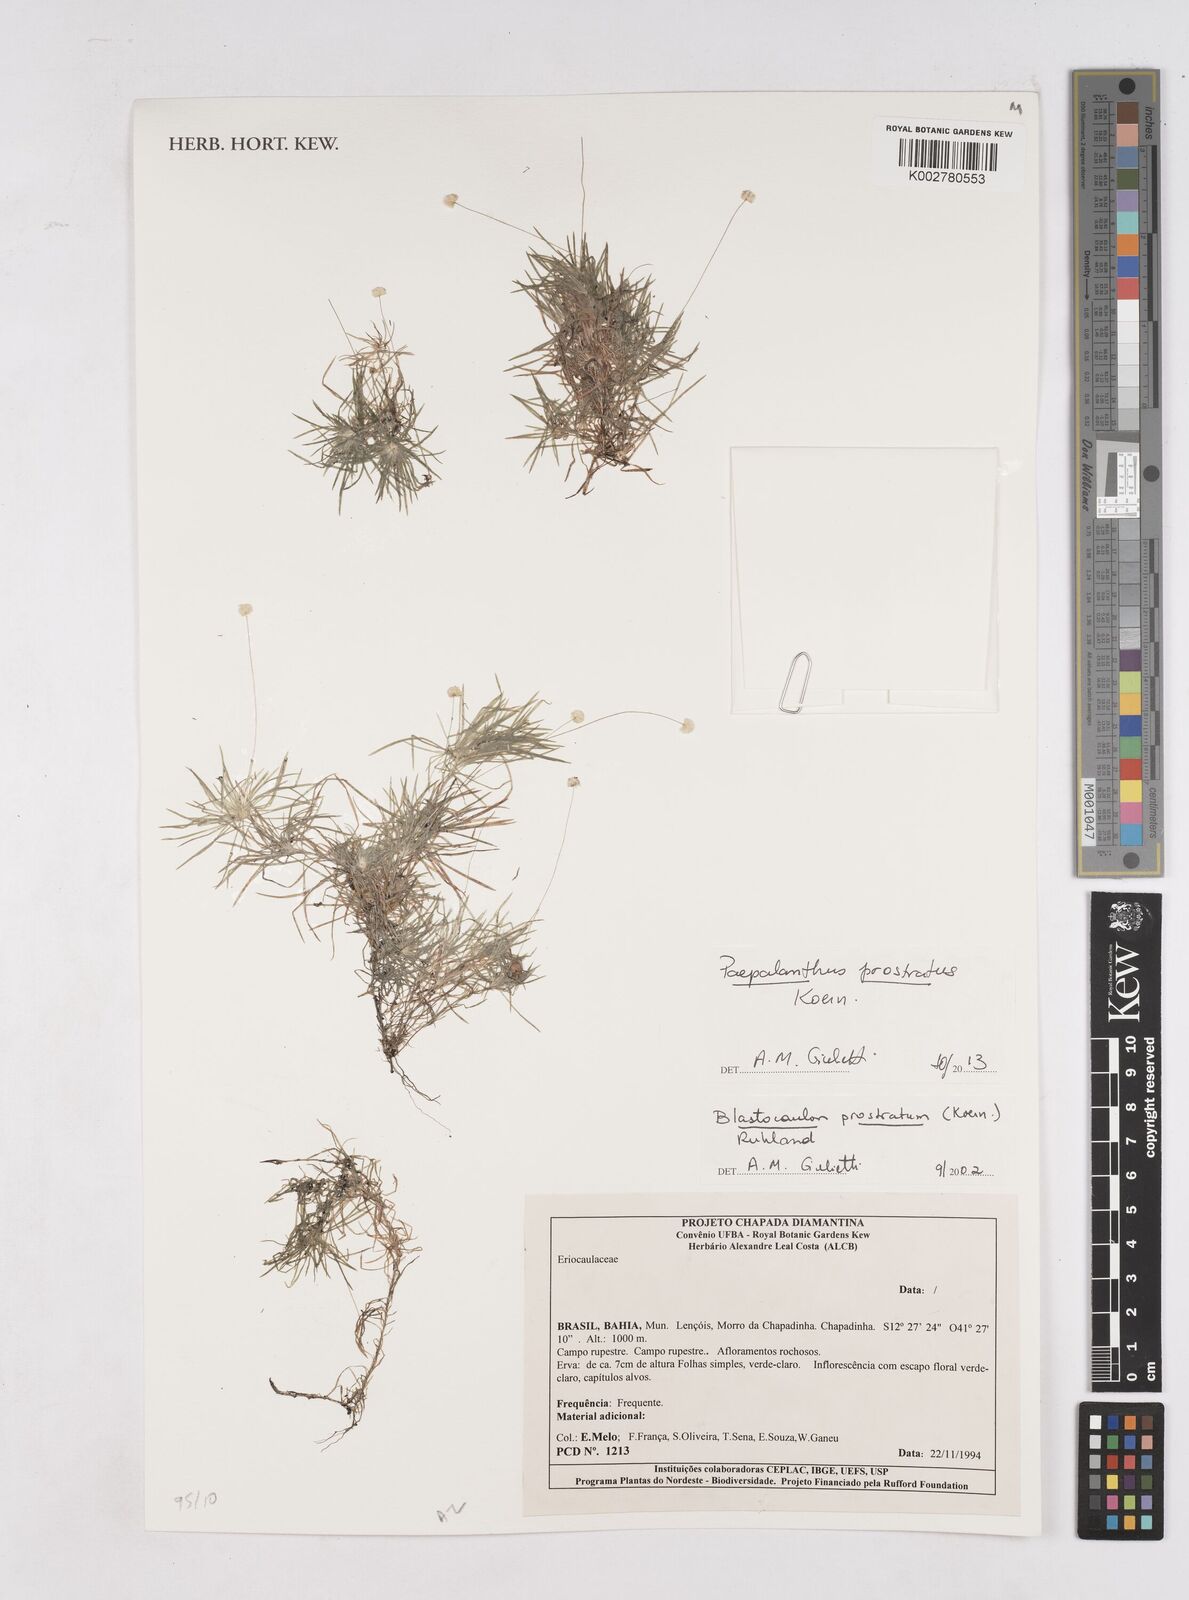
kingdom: Plantae
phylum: Tracheophyta
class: Liliopsida
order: Poales
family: Eriocaulaceae
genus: Paepalanthus
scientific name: Paepalanthus prostratus
